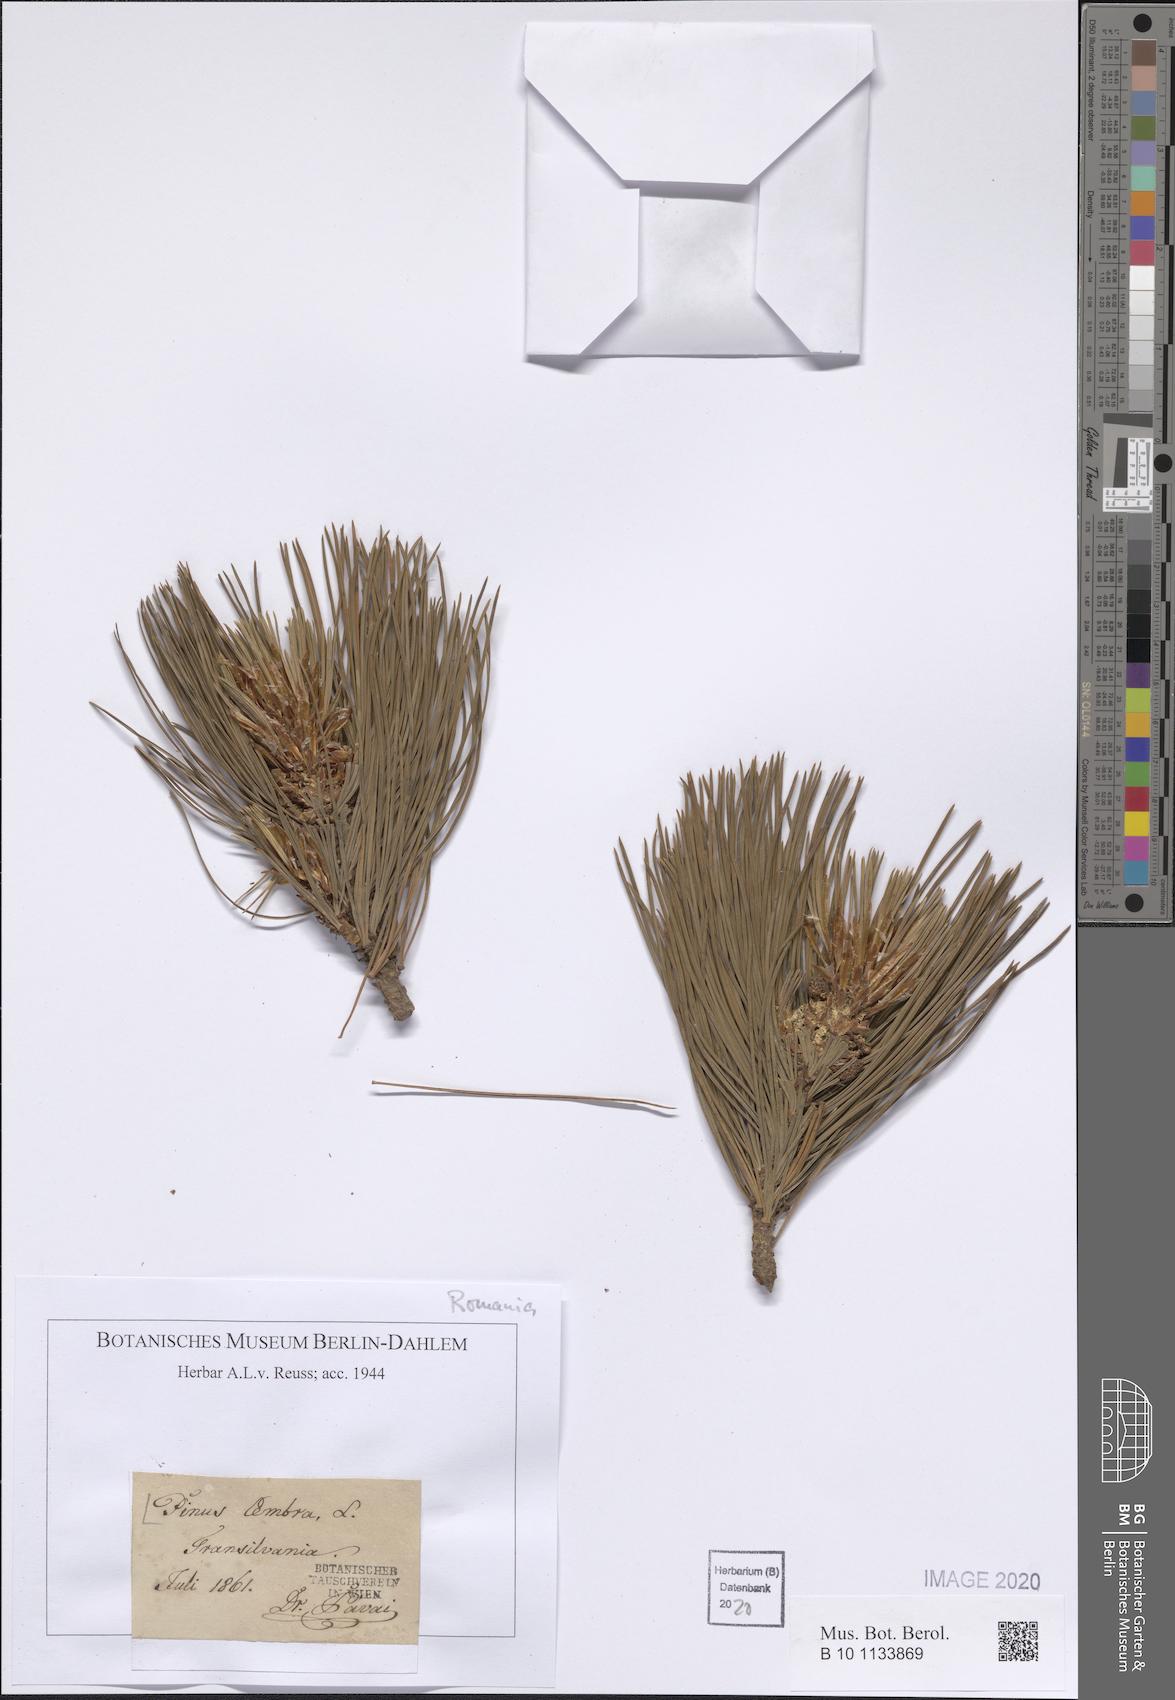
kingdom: Plantae
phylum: Tracheophyta
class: Pinopsida
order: Pinales
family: Pinaceae
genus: Pinus
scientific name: Pinus cembra
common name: Arolla pine
